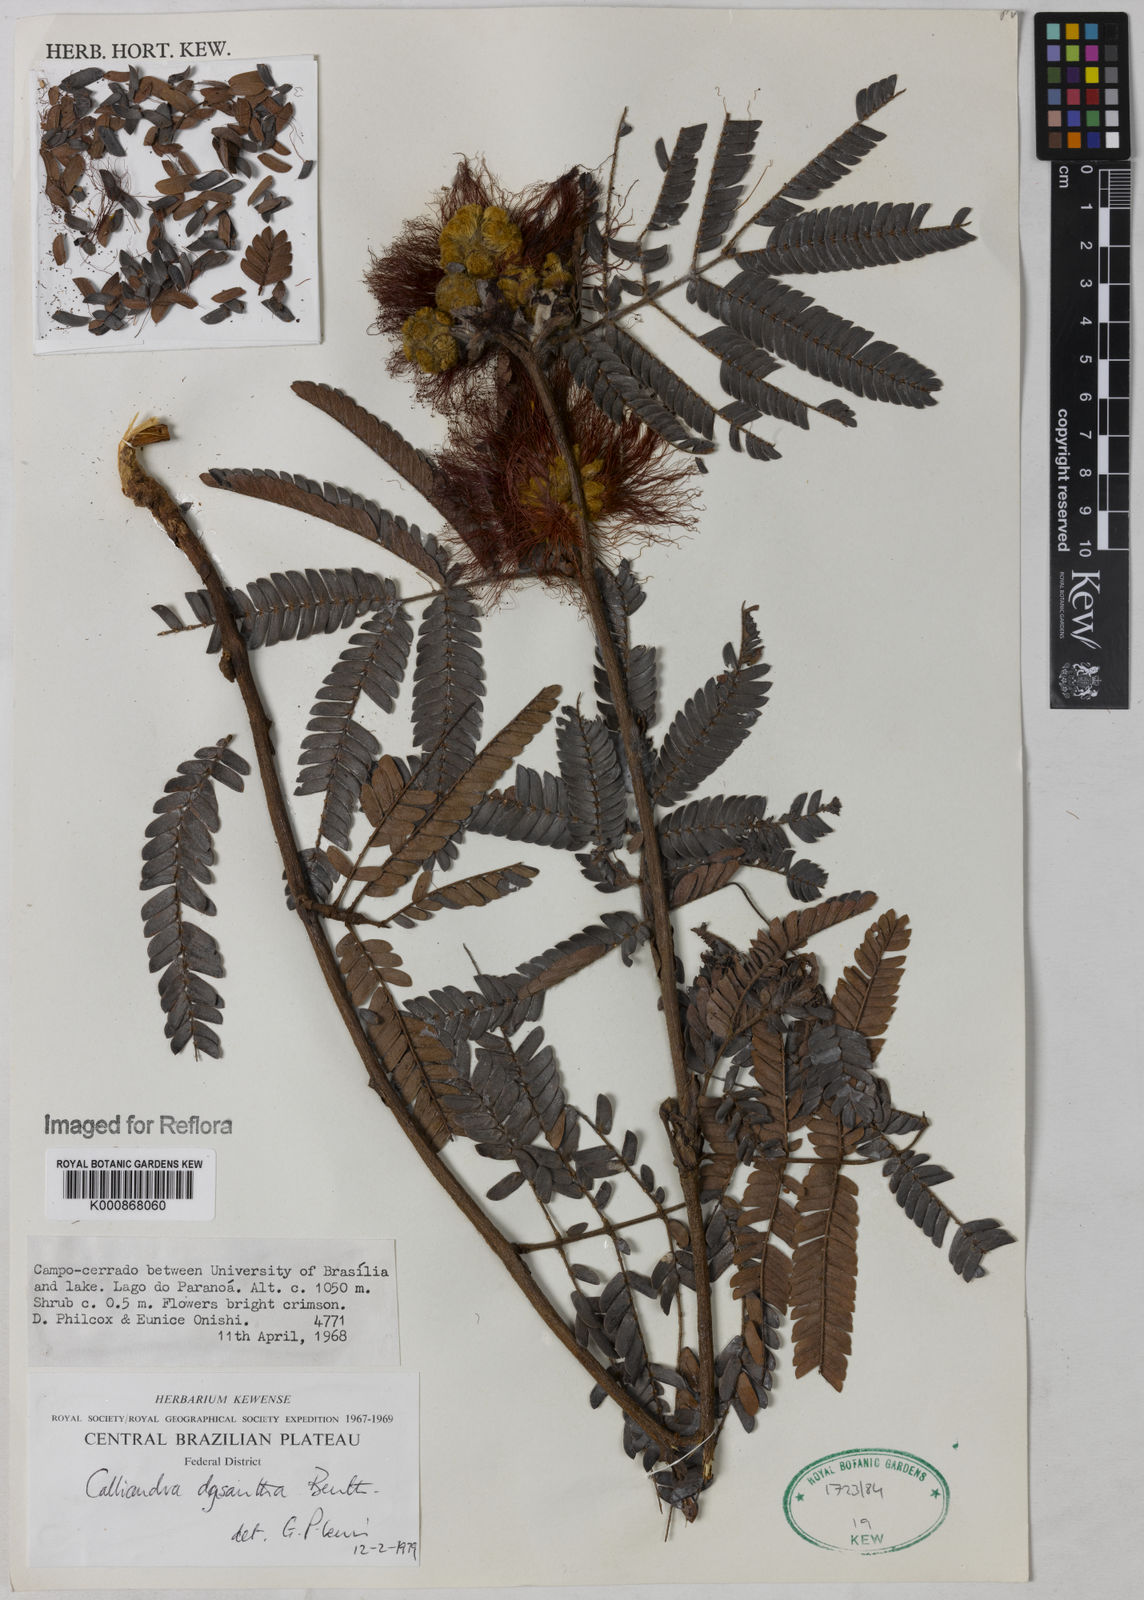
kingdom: Plantae
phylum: Tracheophyta
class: Magnoliopsida
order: Fabales
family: Fabaceae
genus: Calliandra
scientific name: Calliandra dysantha
